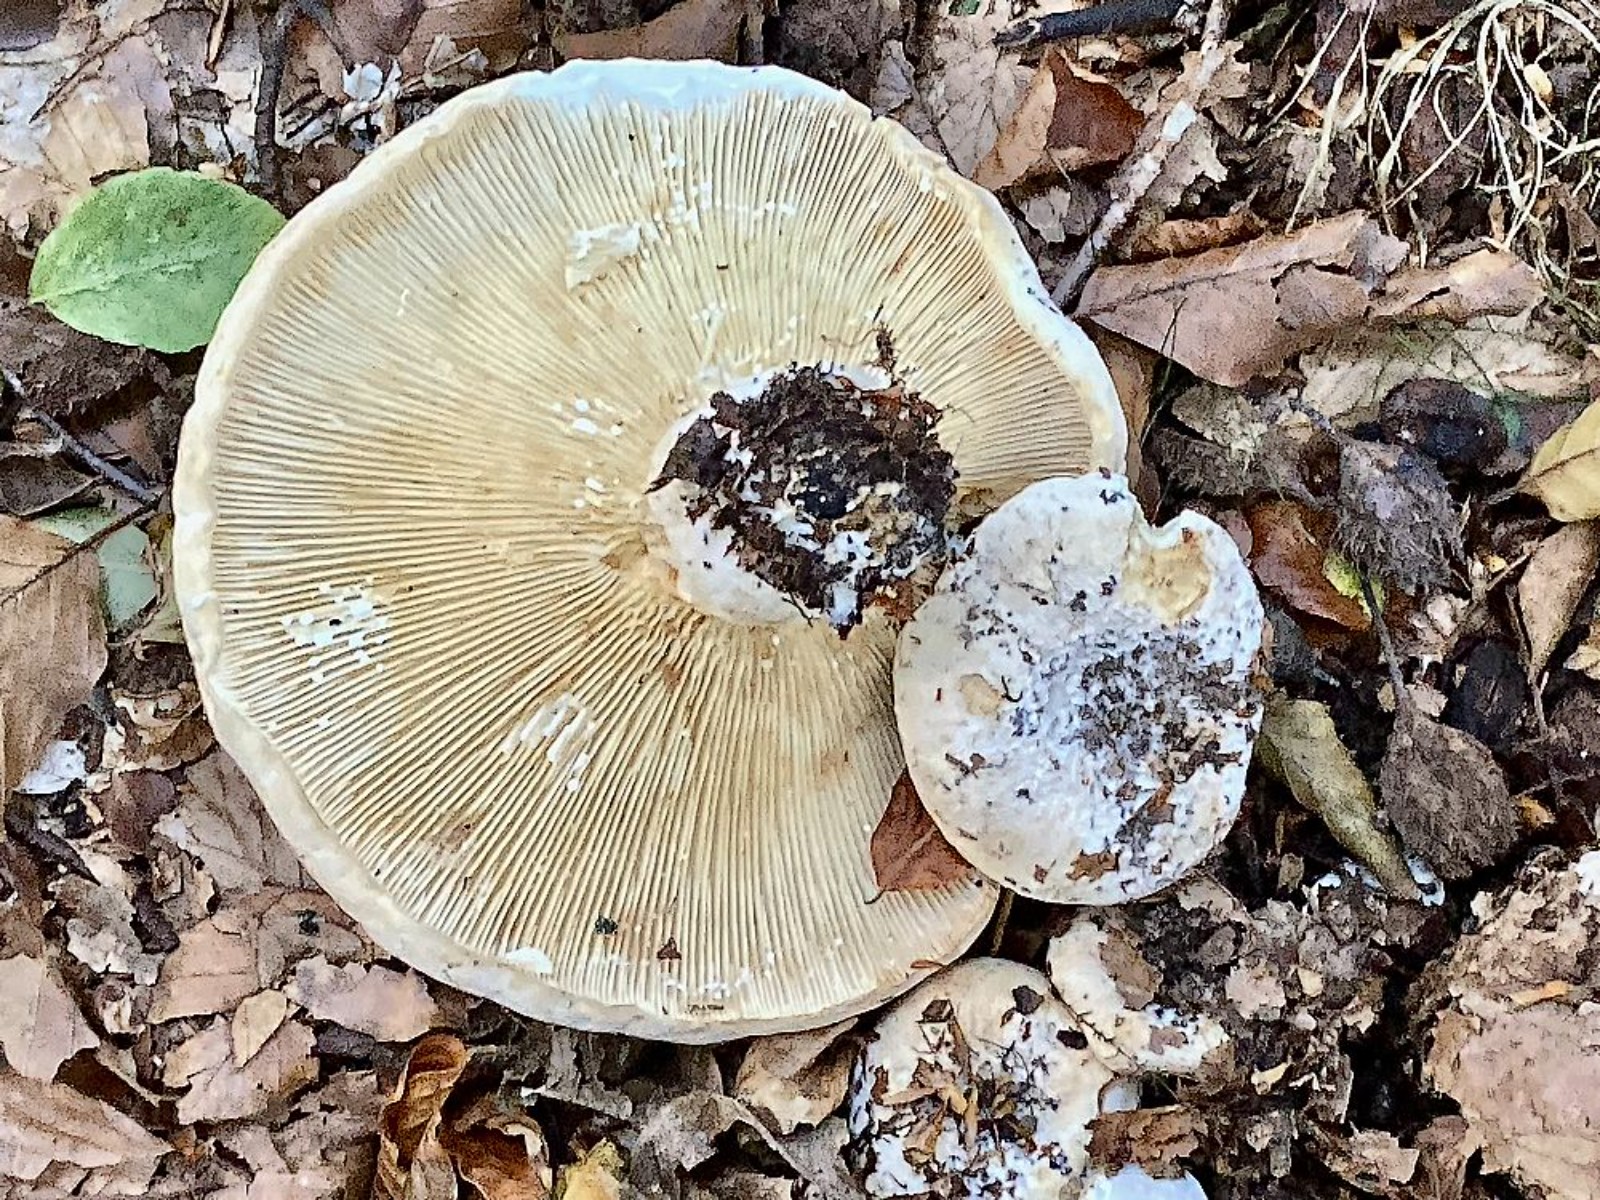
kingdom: Fungi
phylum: Basidiomycota
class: Agaricomycetes
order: Russulales
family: Russulaceae
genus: Lactifluus
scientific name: Lactifluus
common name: mælkehat
